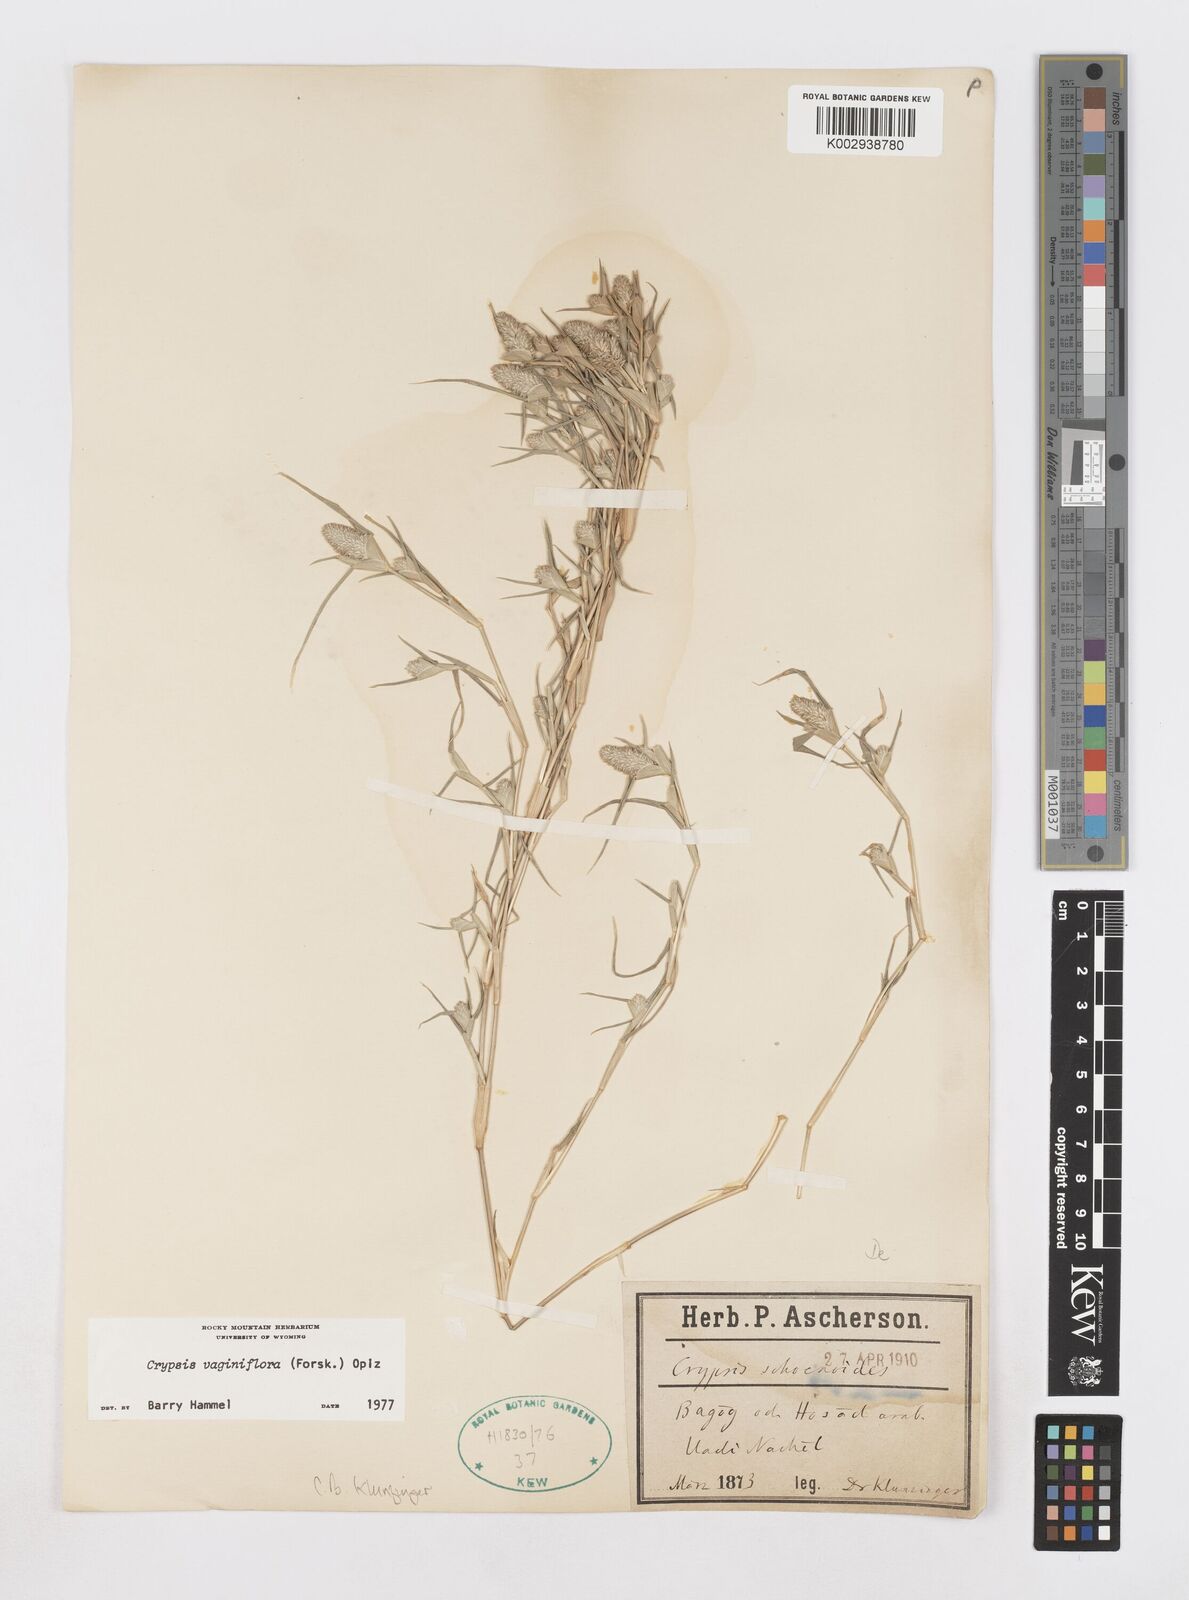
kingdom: Plantae
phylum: Tracheophyta
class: Liliopsida
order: Poales
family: Poaceae
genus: Sporobolus
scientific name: Sporobolus niliacus
